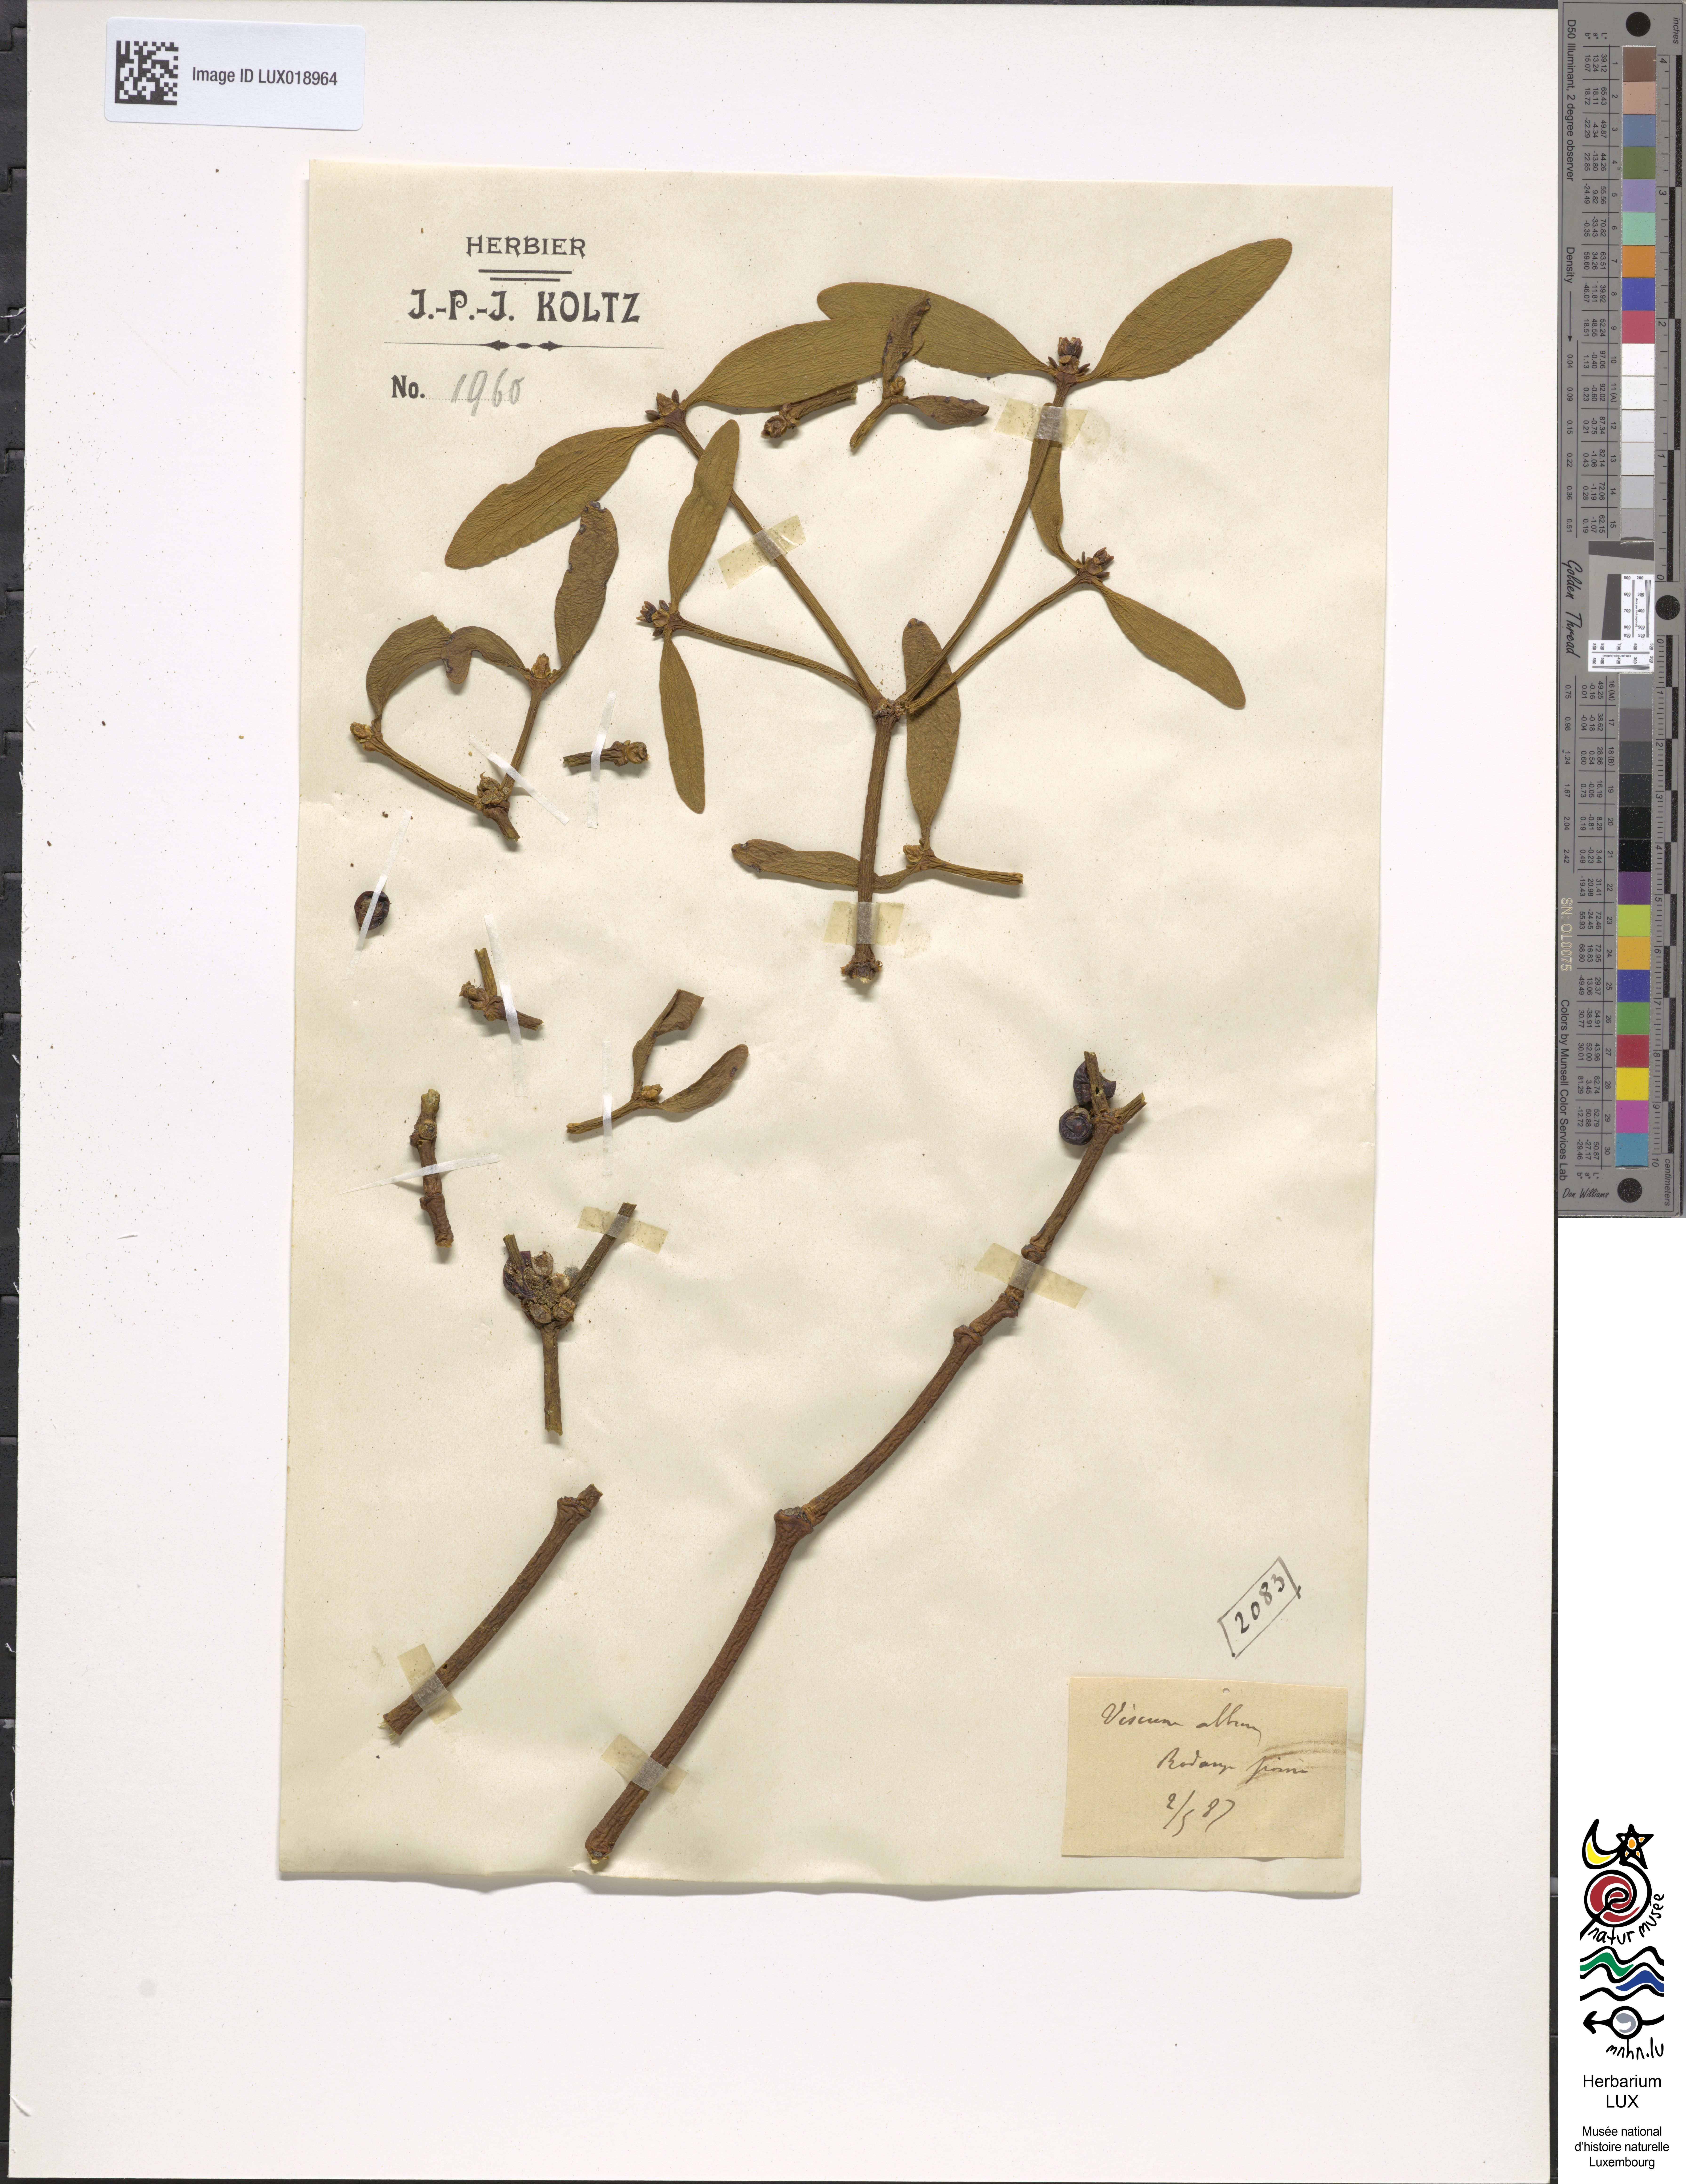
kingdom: Plantae
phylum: Tracheophyta
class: Magnoliopsida
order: Santalales
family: Viscaceae
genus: Viscum
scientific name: Viscum album
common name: Mistletoe
